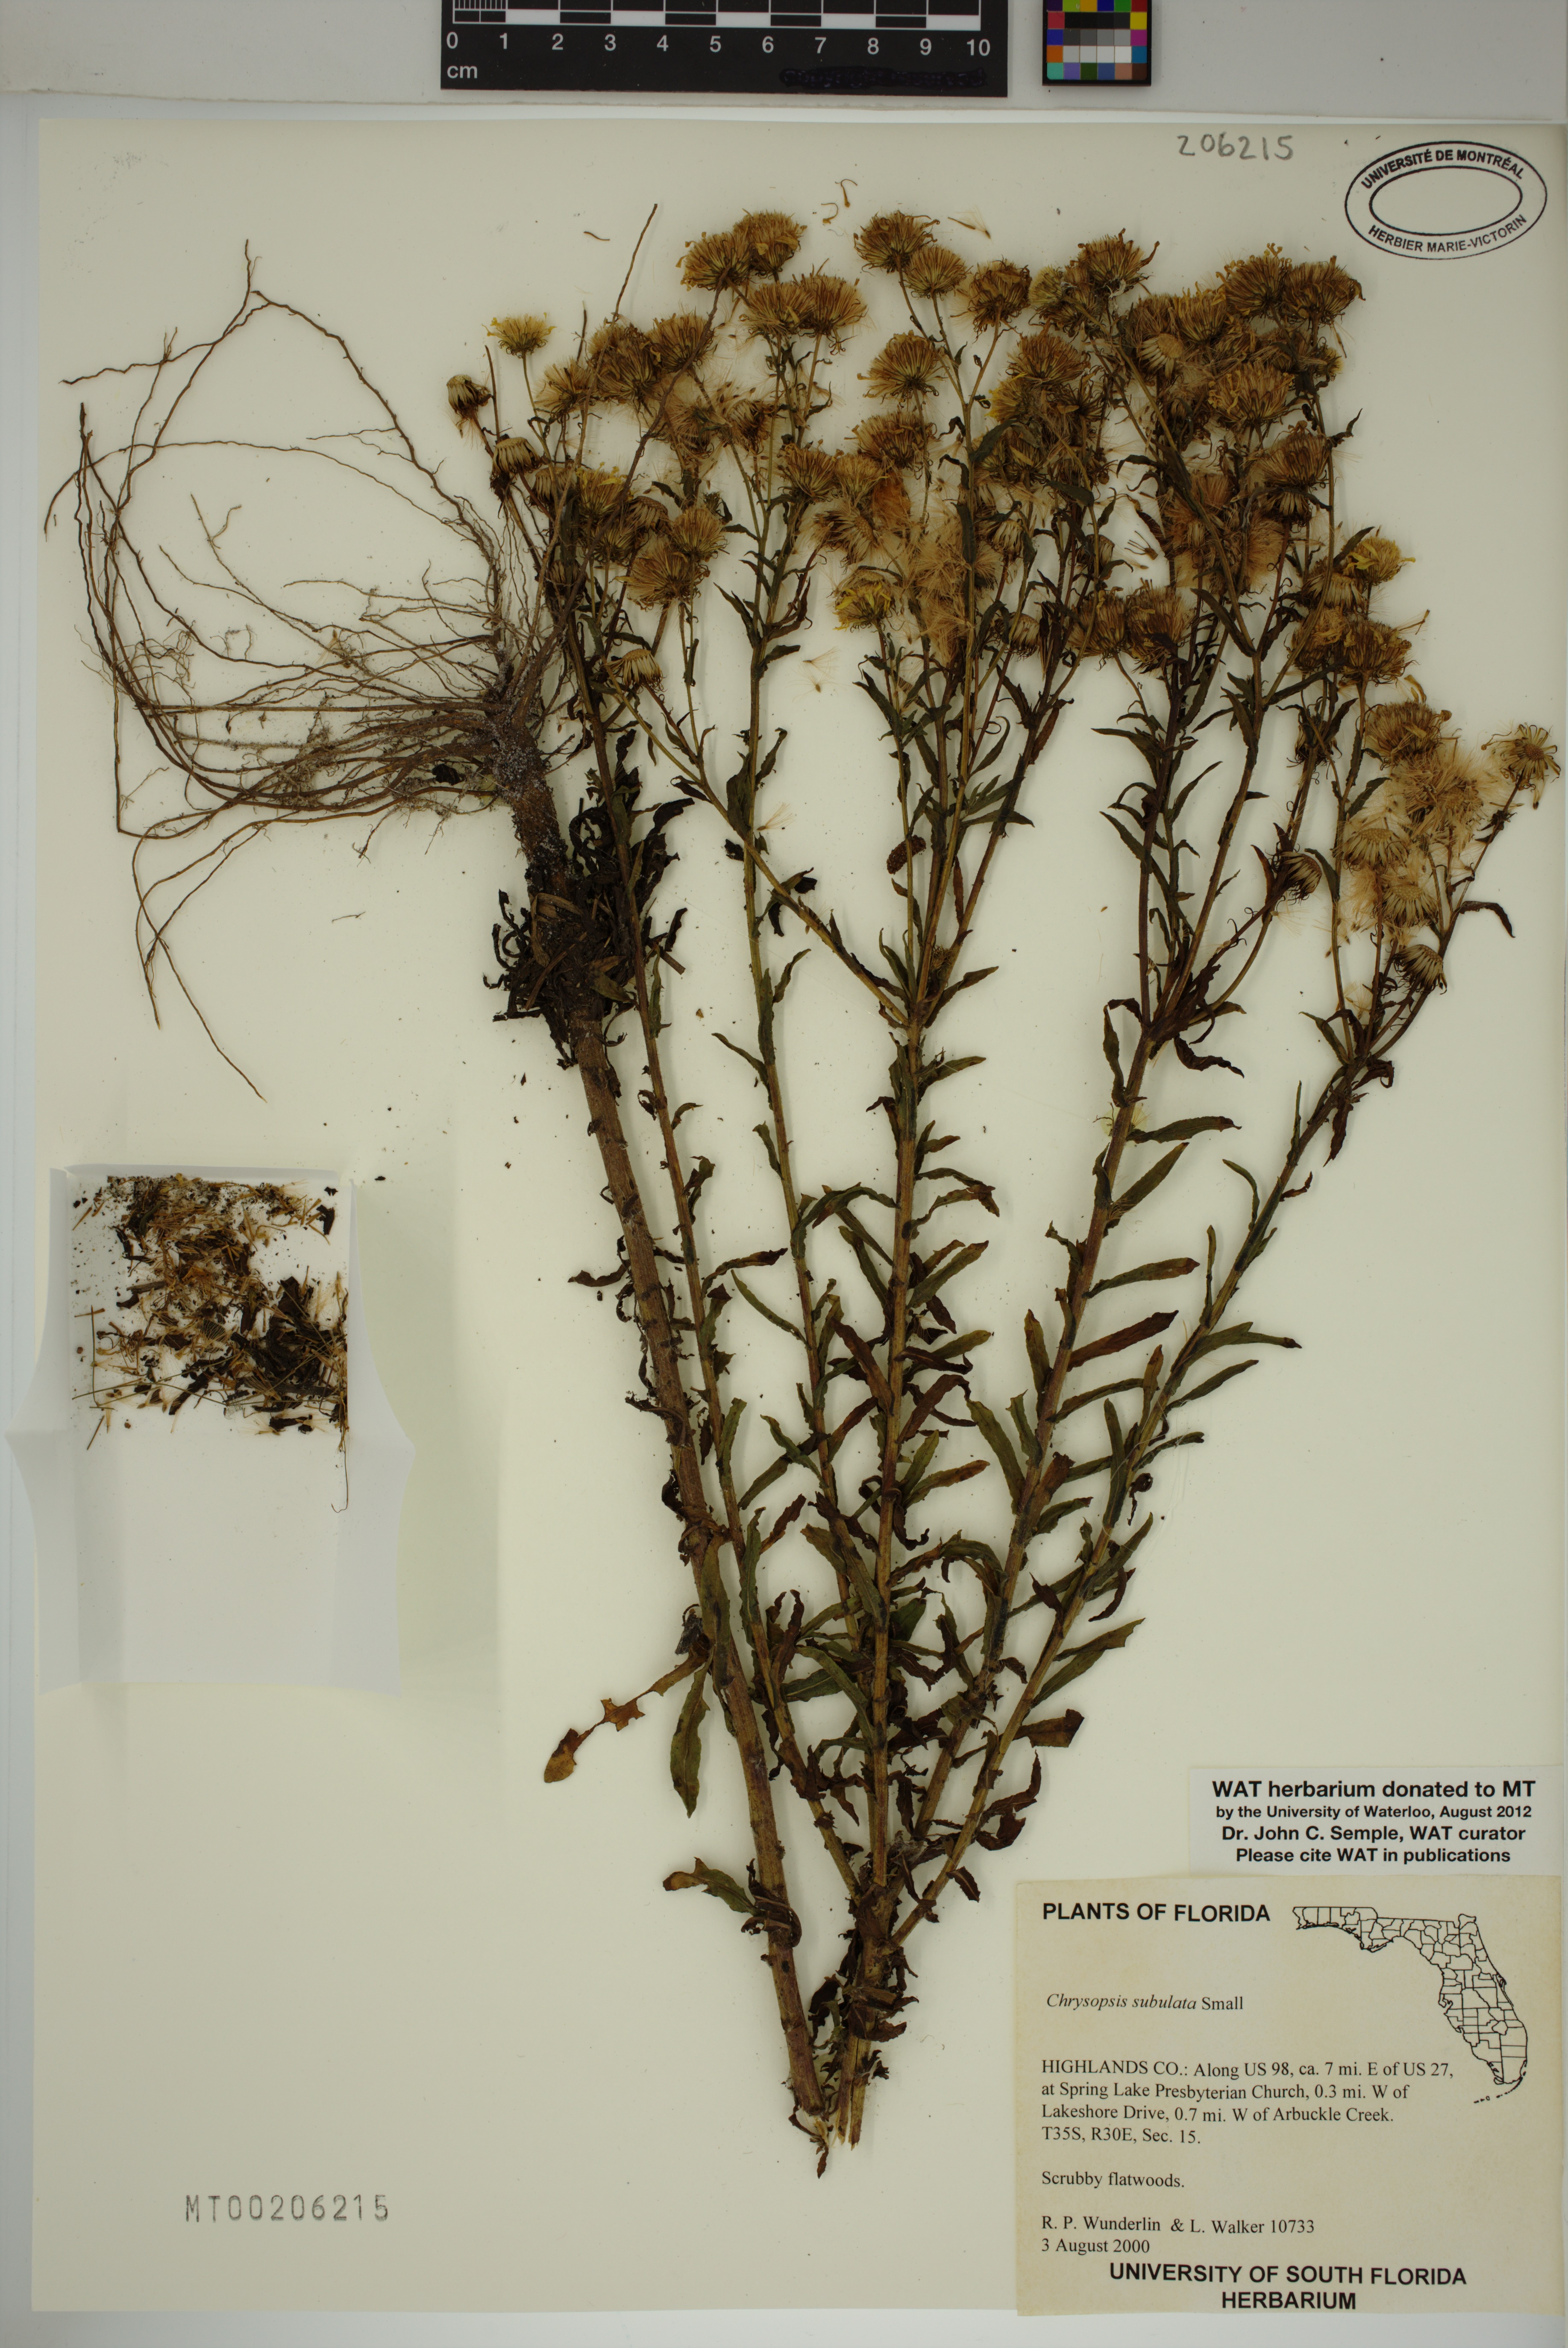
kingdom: Plantae
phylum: Tracheophyta
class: Magnoliopsida
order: Asterales
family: Asteraceae
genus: Chrysopsis
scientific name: Chrysopsis subulata
